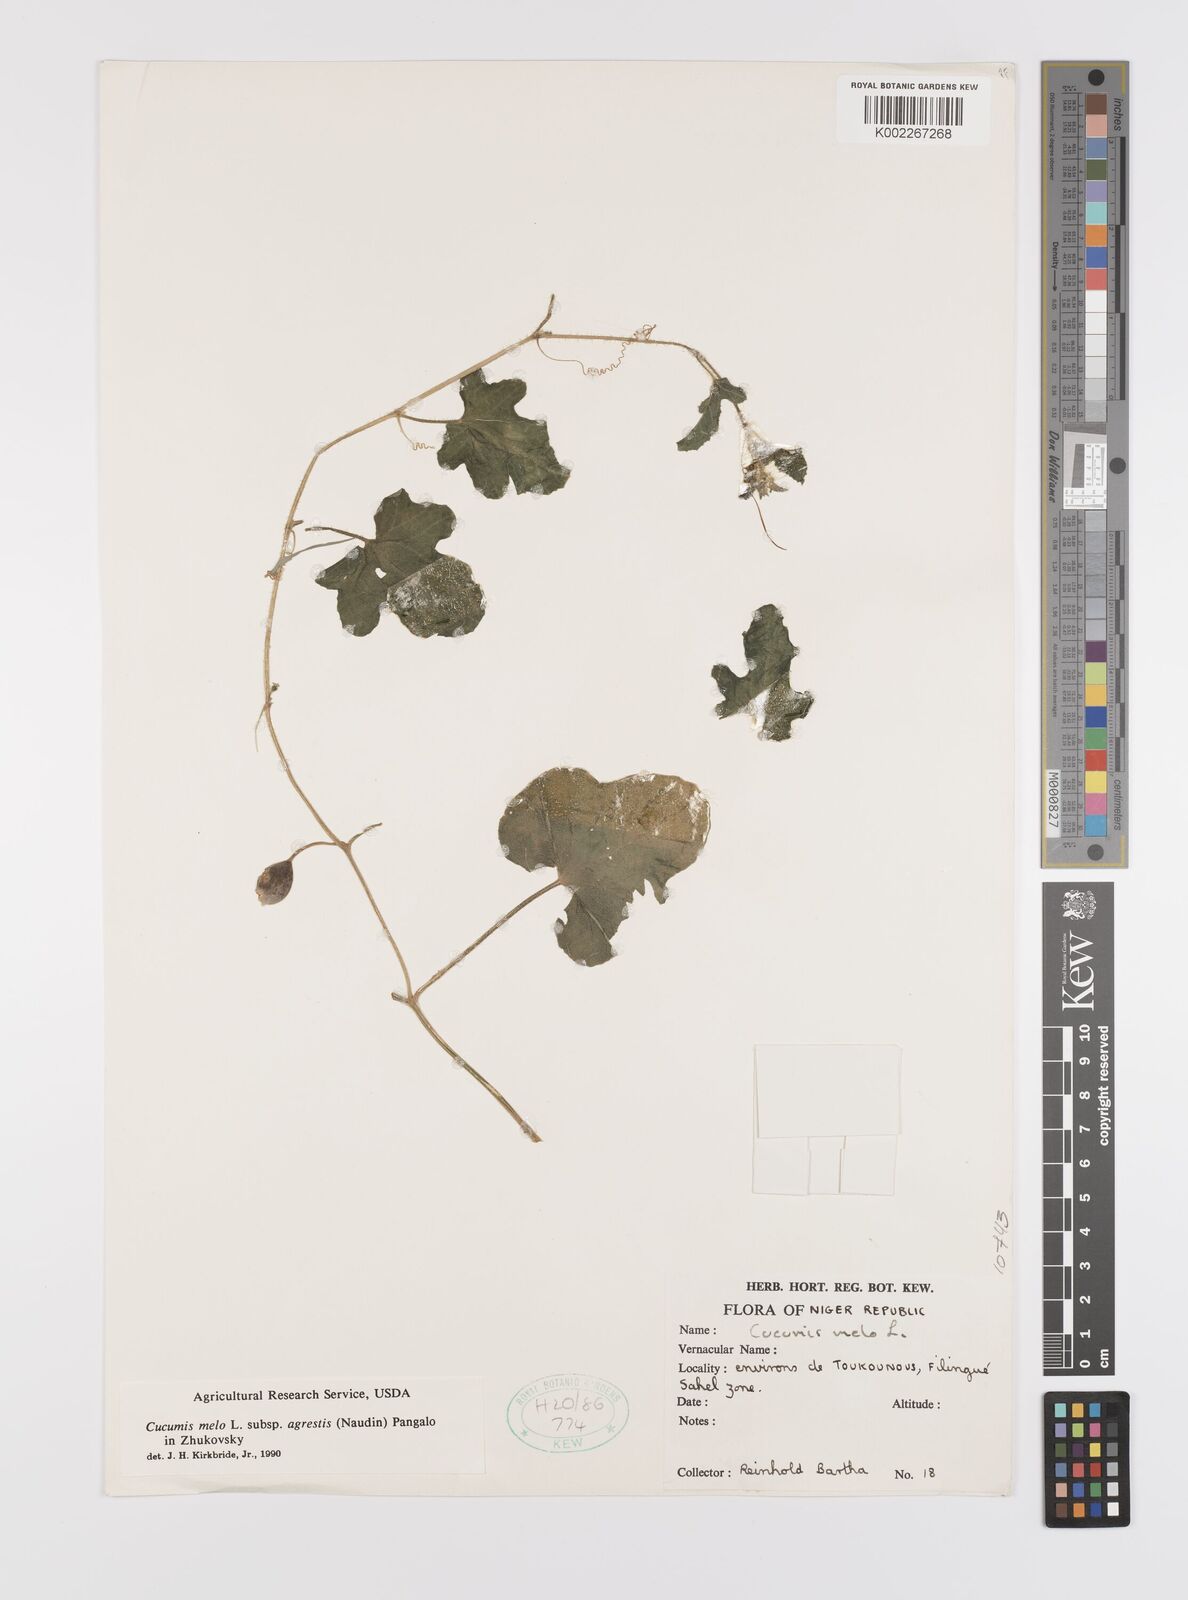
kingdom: Plantae
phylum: Tracheophyta
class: Magnoliopsida
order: Cucurbitales
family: Cucurbitaceae
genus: Cucumis
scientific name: Cucumis melo
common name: Melon
